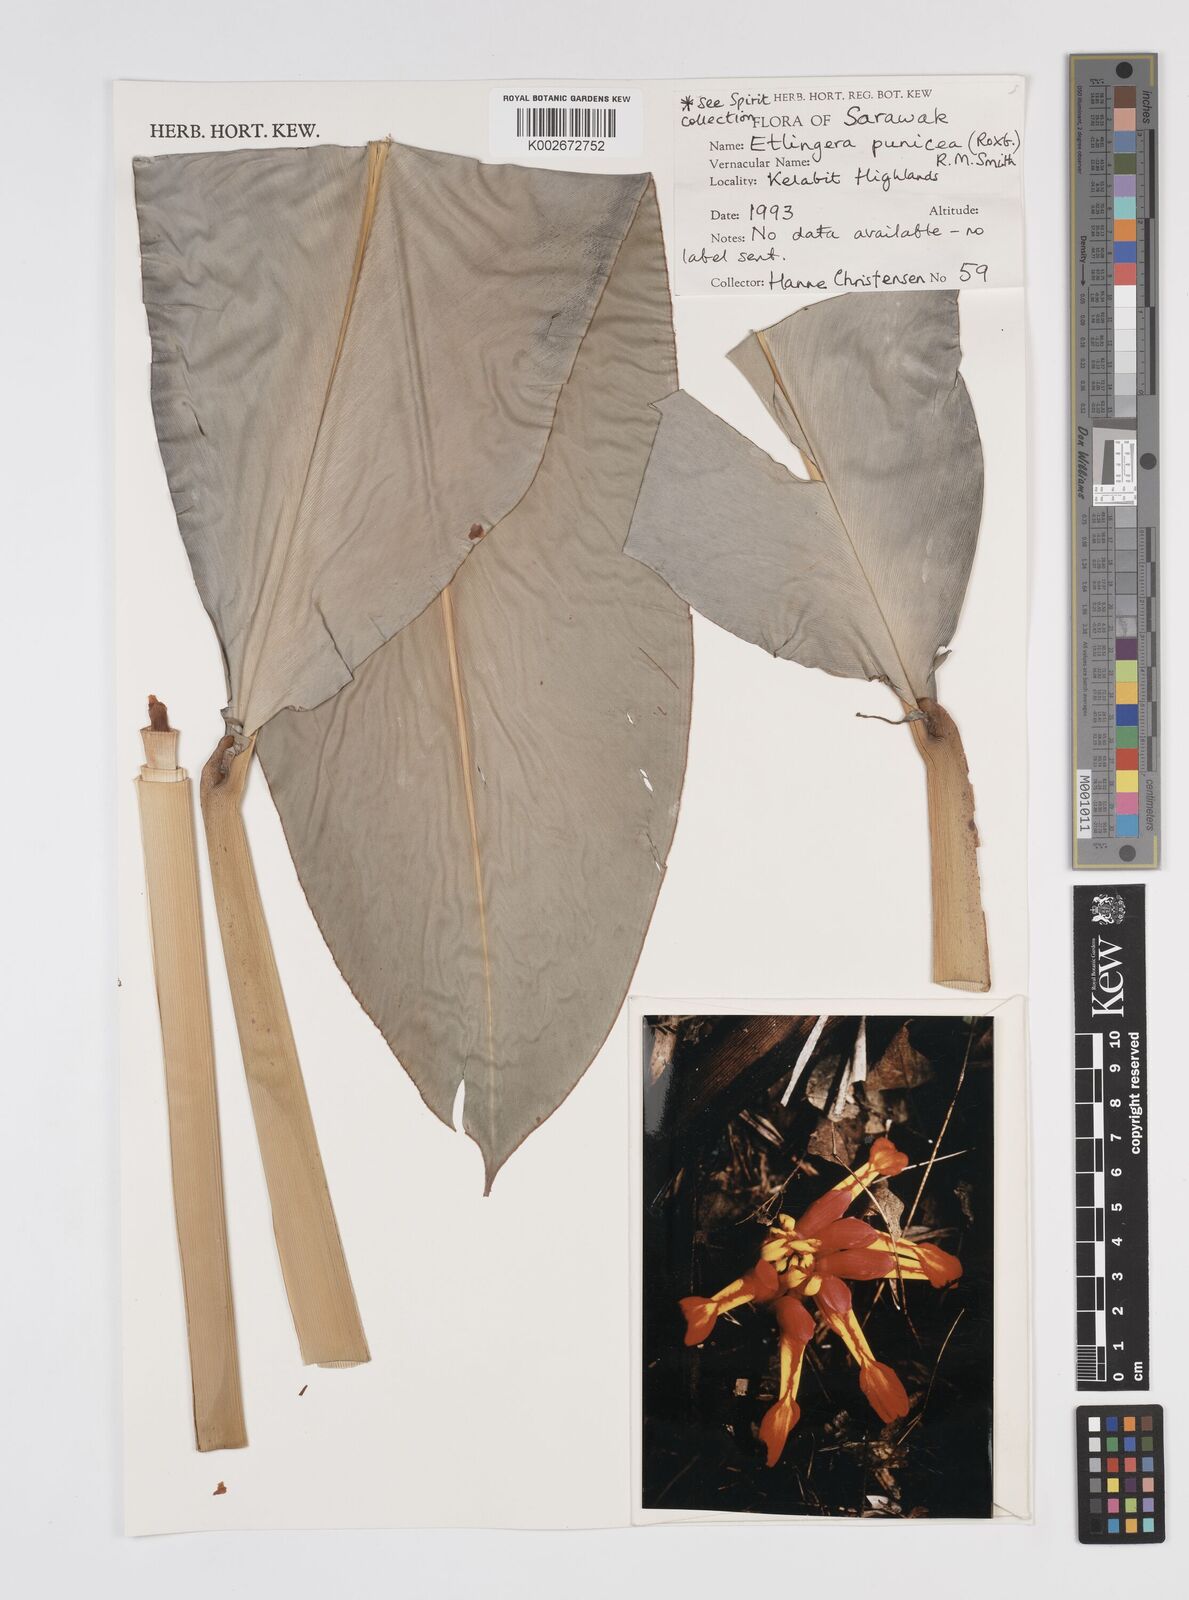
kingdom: Plantae
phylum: Tracheophyta
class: Liliopsida
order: Zingiberales
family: Zingiberaceae
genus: Etlingera
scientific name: Etlingera punicea
